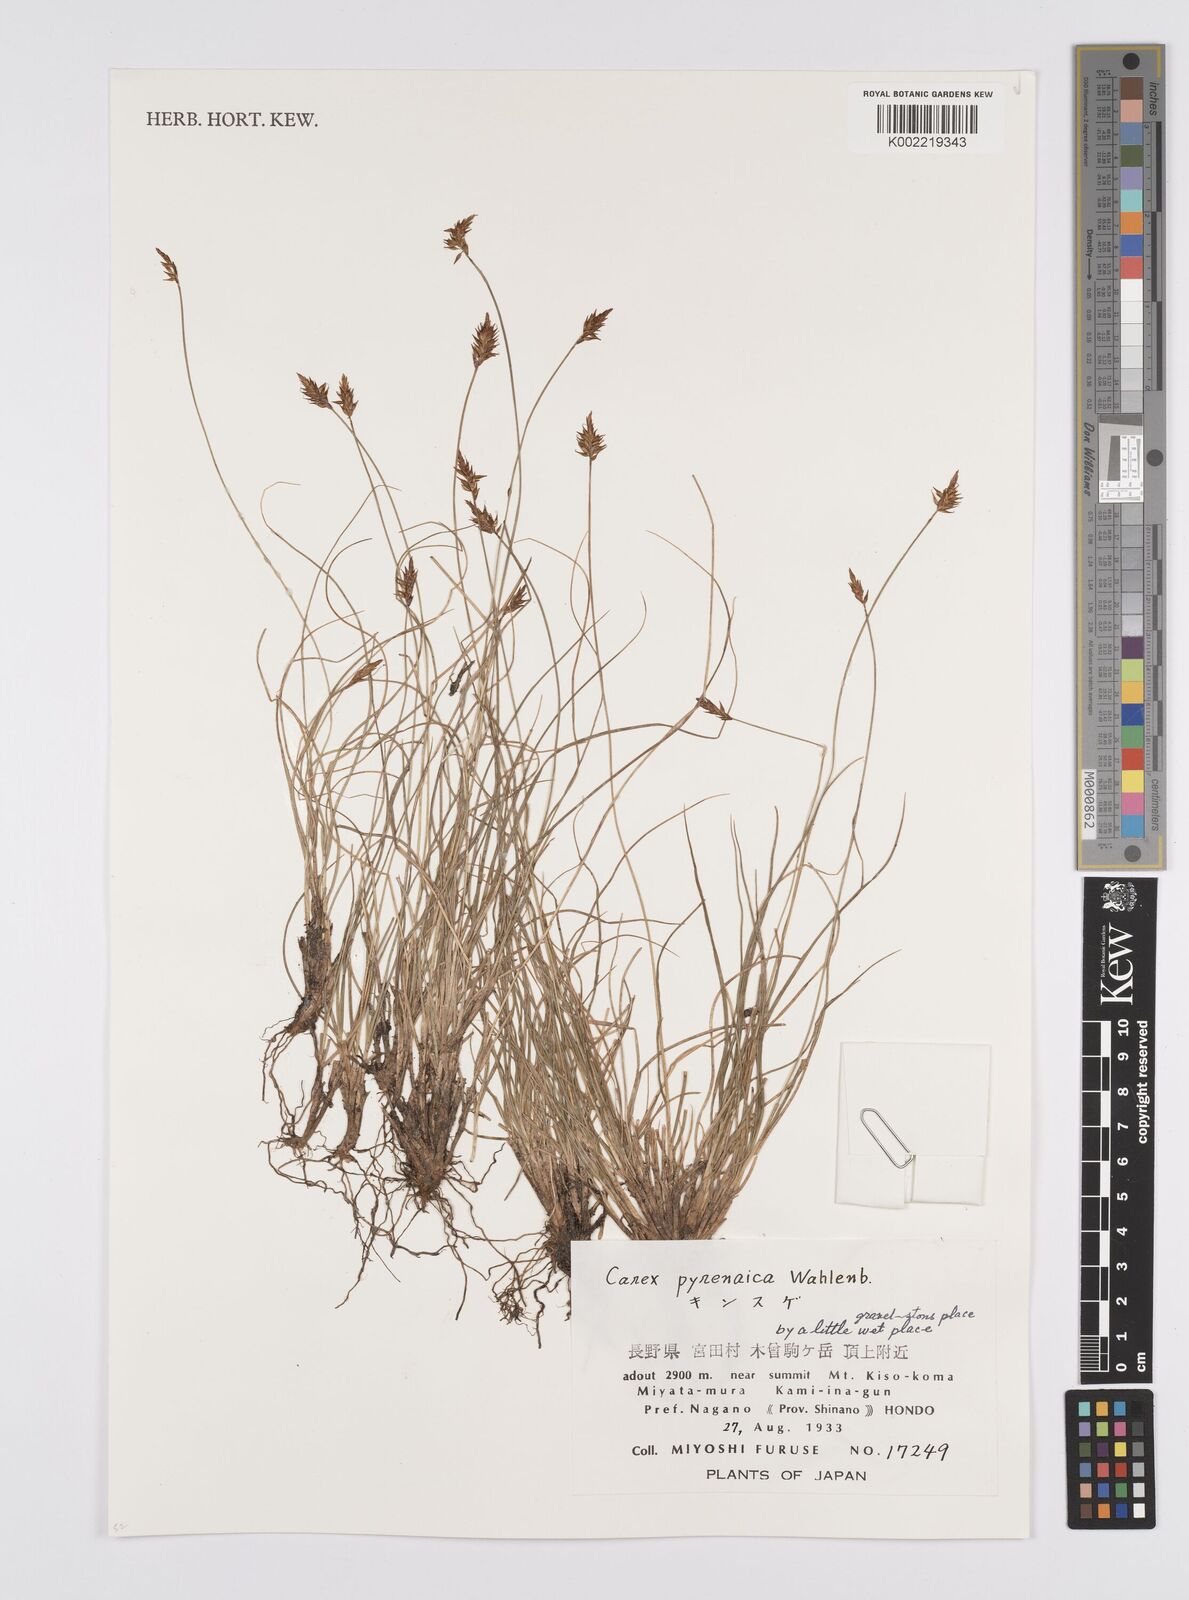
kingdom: Plantae
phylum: Tracheophyta
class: Liliopsida
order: Poales
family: Cyperaceae
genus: Carex
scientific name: Carex pyrenaica
